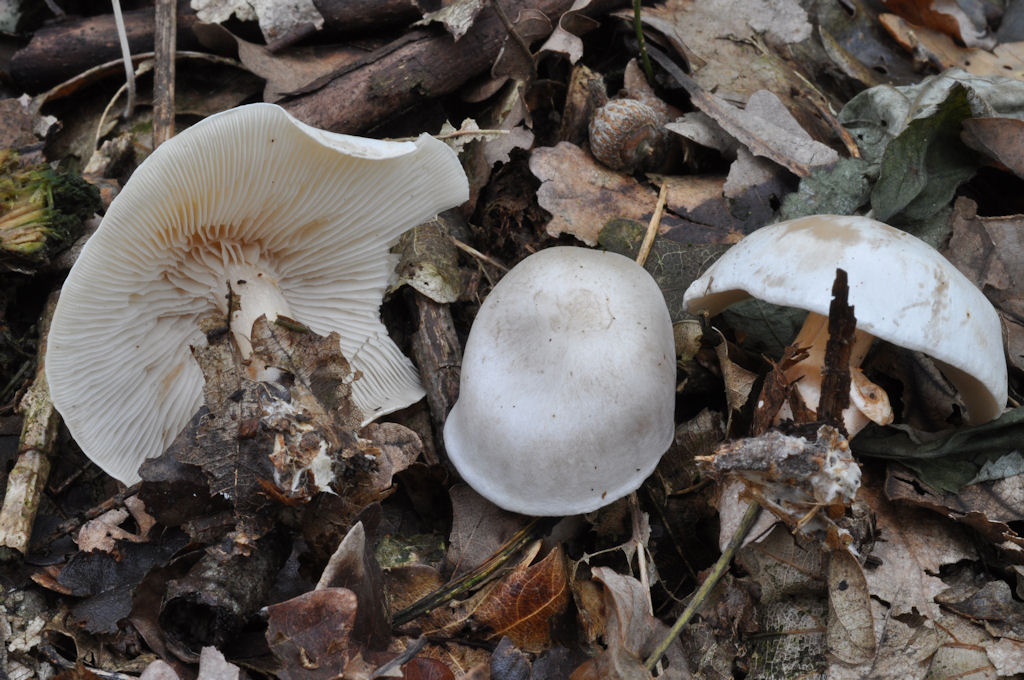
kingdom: Fungi
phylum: Basidiomycota
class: Agaricomycetes
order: Agaricales
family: Tricholomataceae
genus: Clitocybe
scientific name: Clitocybe phyllophila
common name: løv-tragthat
